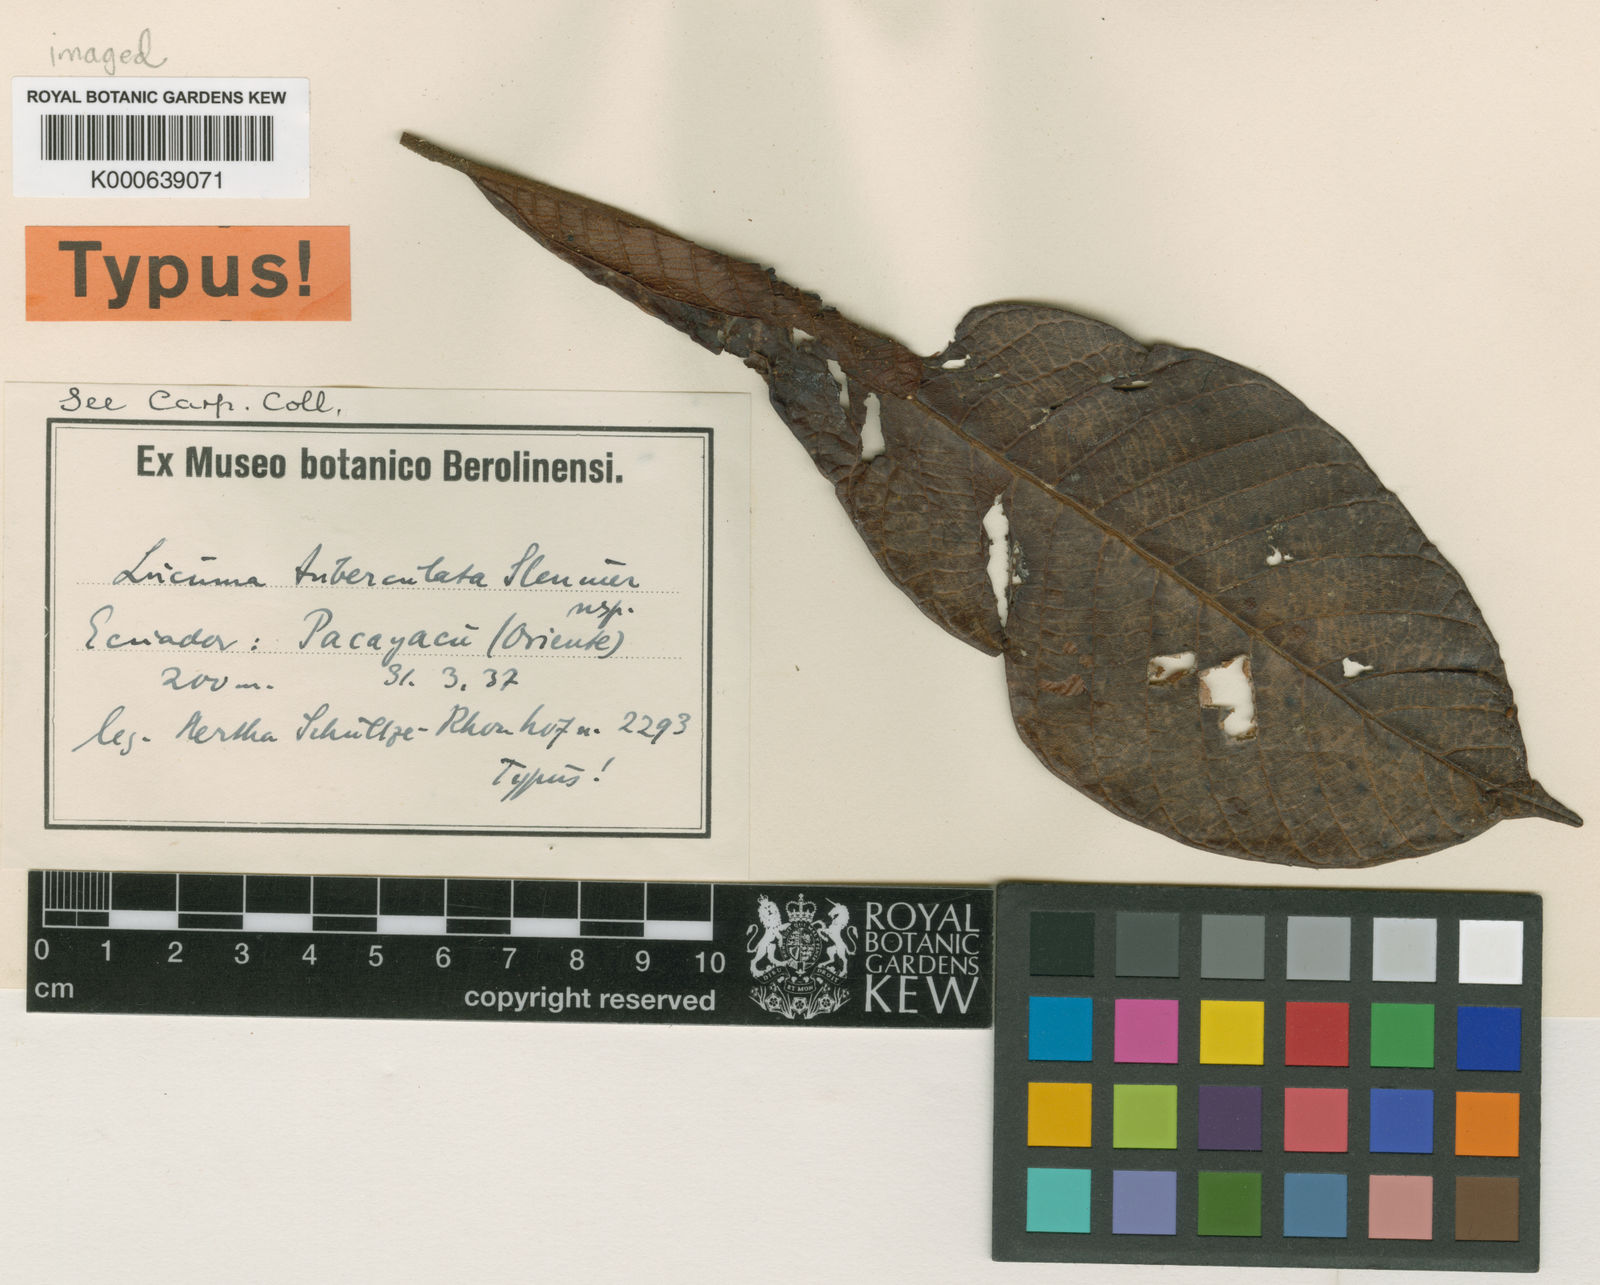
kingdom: Plantae
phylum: Tracheophyta
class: Magnoliopsida
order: Ericales
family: Sapotaceae
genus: Pouteria
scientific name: Pouteria torta
